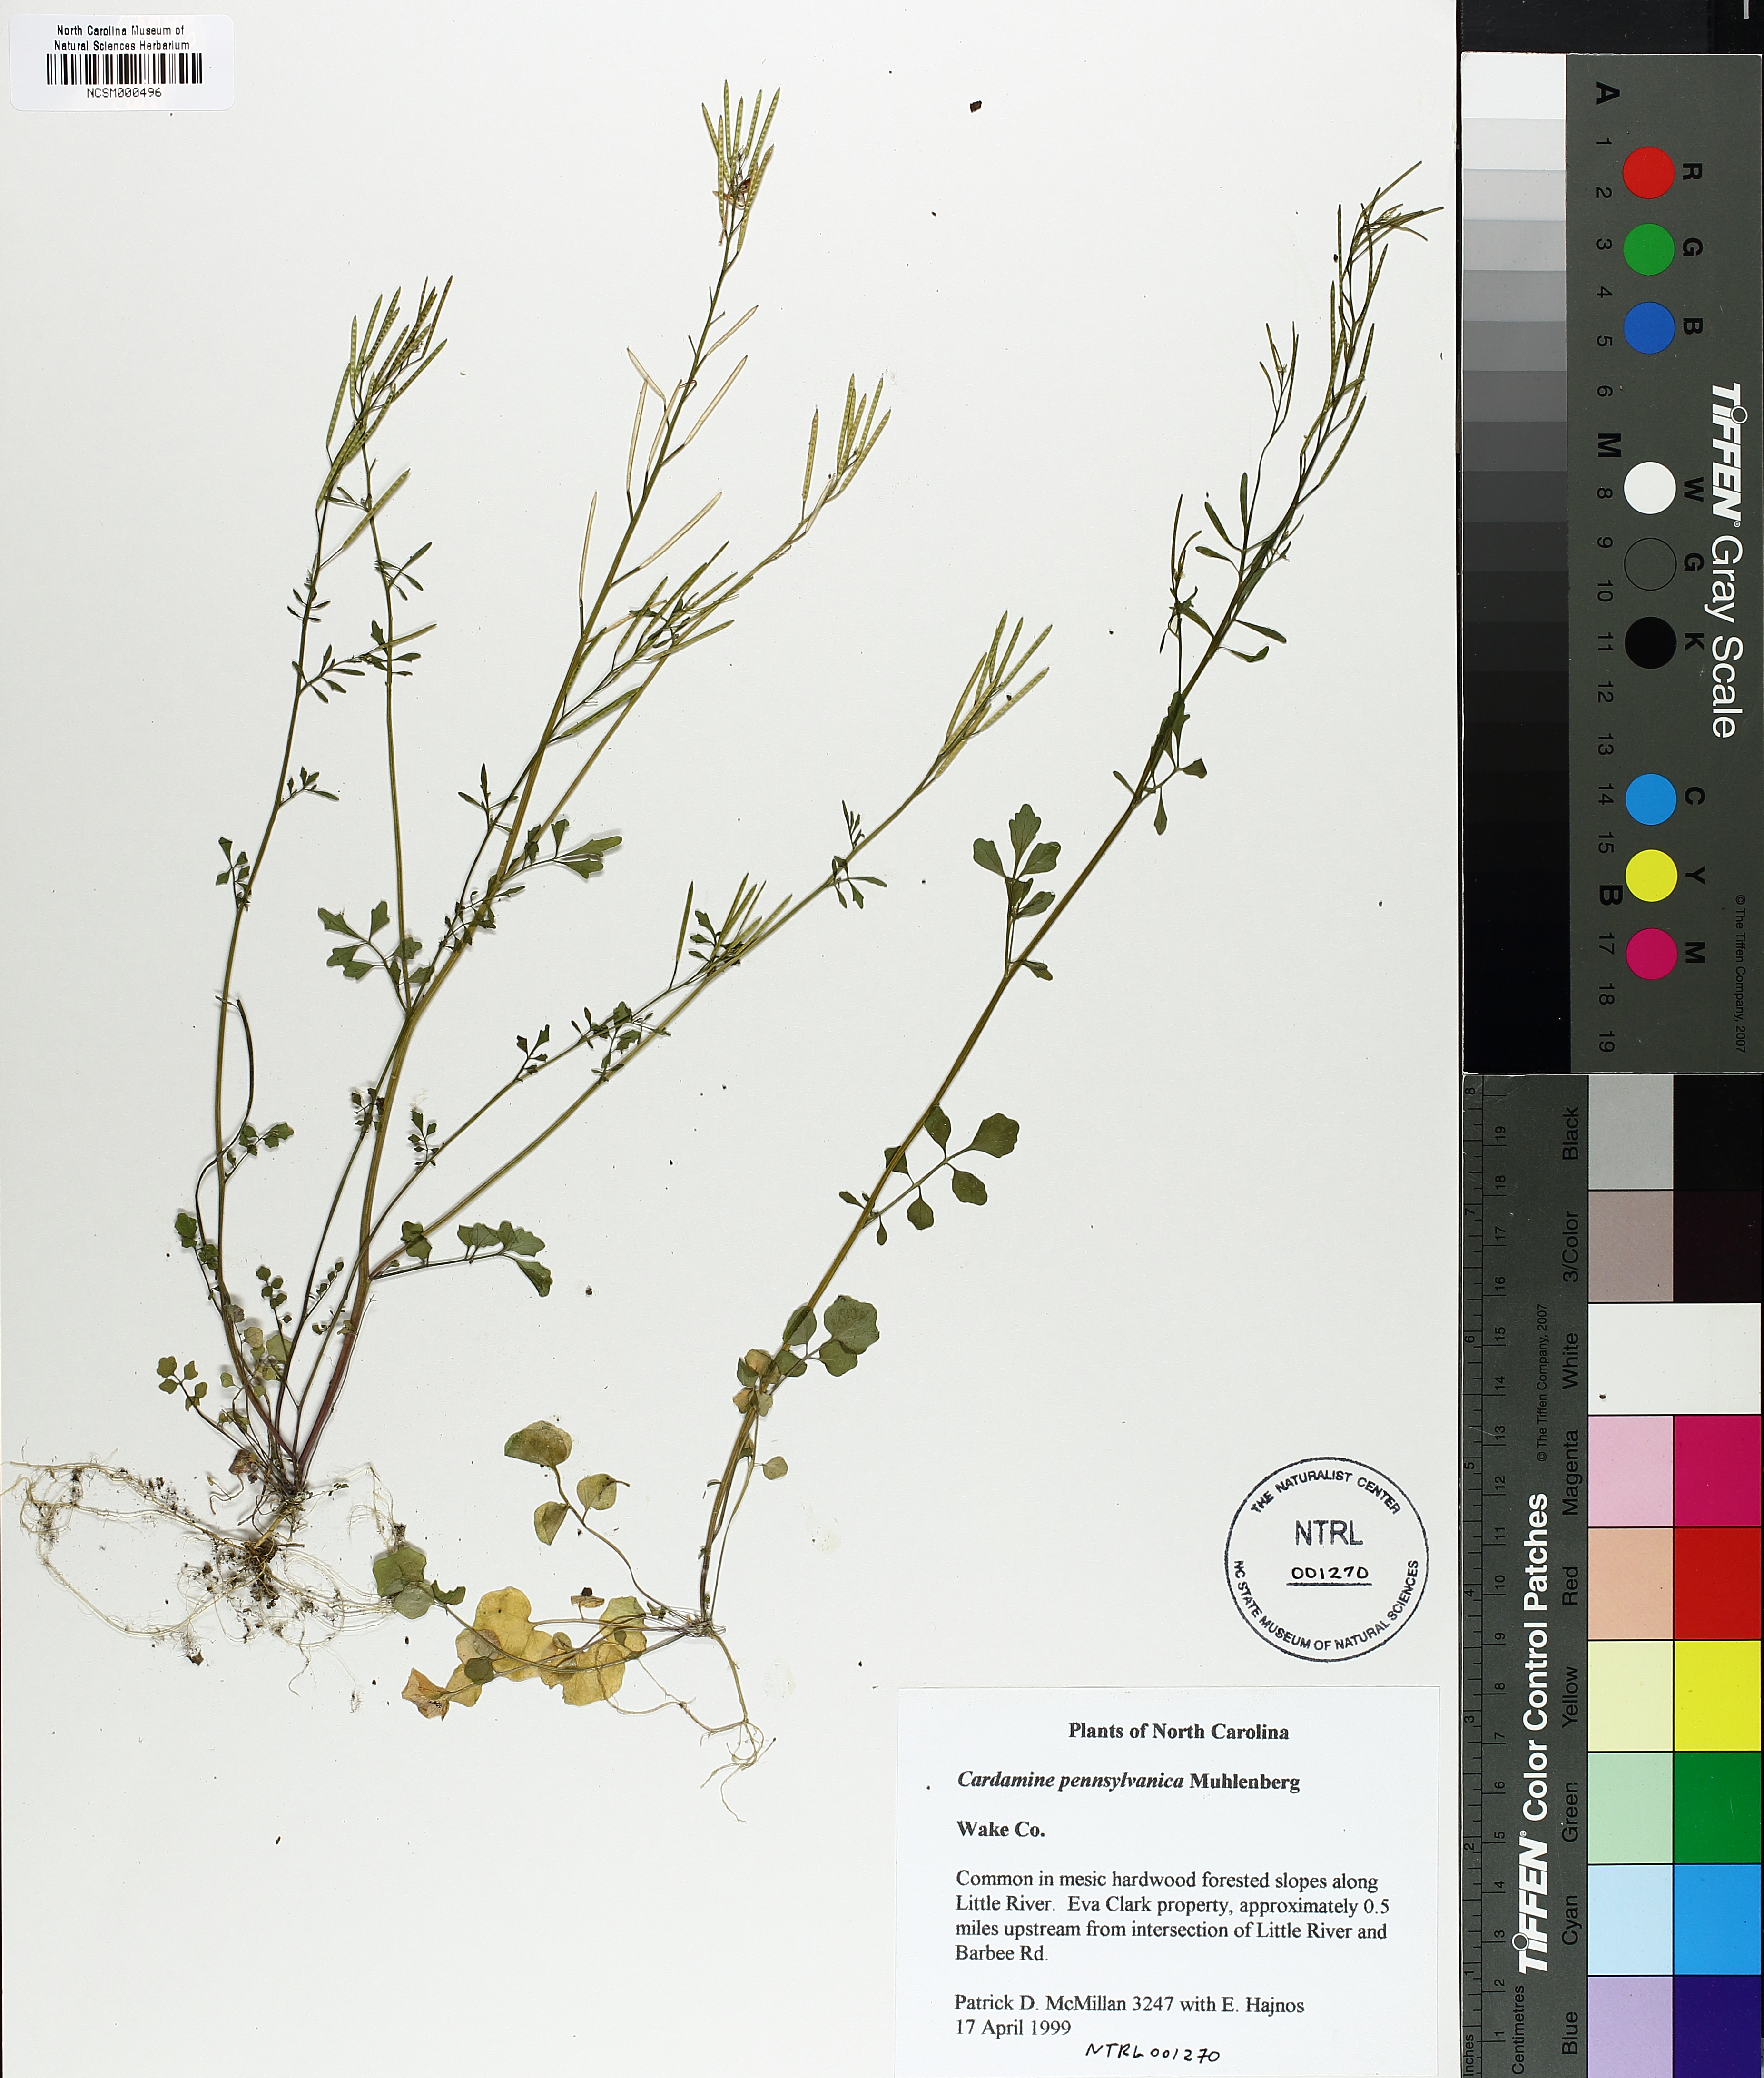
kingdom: Plantae
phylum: Tracheophyta
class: Magnoliopsida
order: Brassicales
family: Brassicaceae
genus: Cardamine
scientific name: Cardamine pensylvanica
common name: Pennsylvania bittercress
